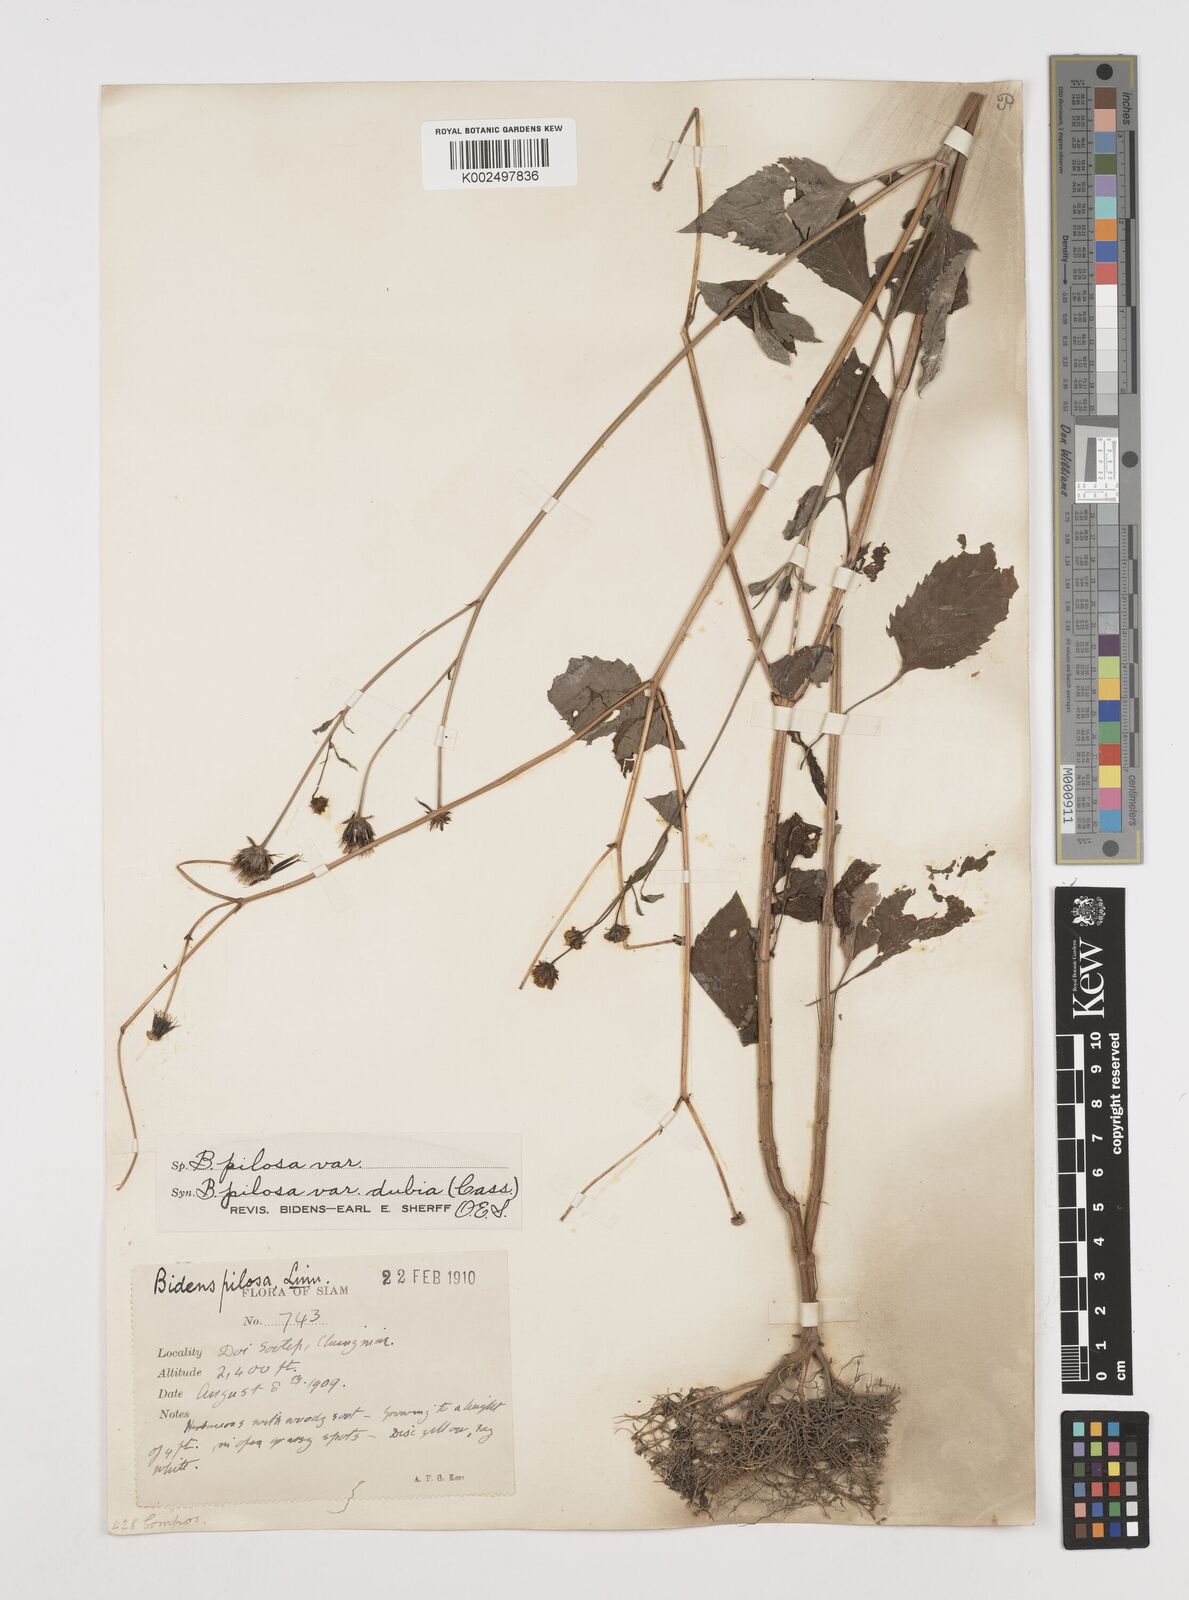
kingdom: Plantae
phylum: Tracheophyta
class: Magnoliopsida
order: Asterales
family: Asteraceae
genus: Bidens
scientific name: Bidens alba
